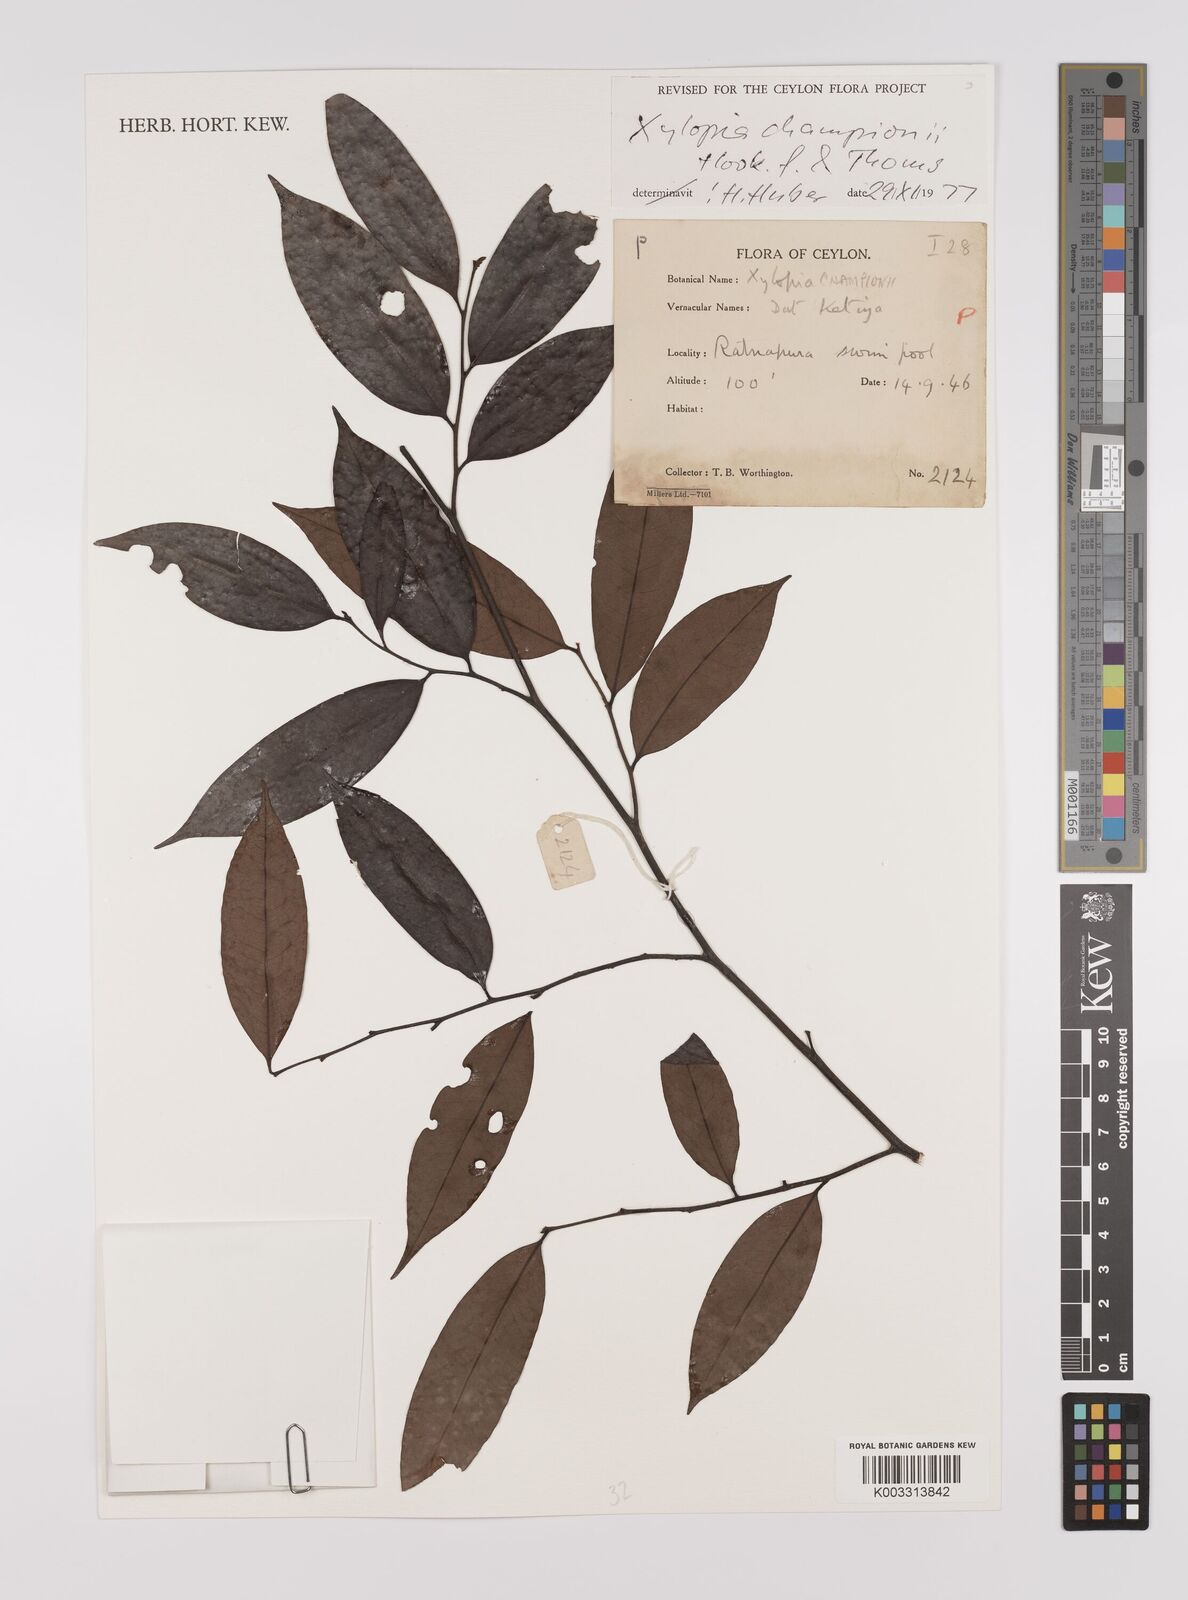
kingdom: Plantae
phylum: Tracheophyta
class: Magnoliopsida
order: Magnoliales
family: Annonaceae
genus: Xylopia
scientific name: Xylopia championii
